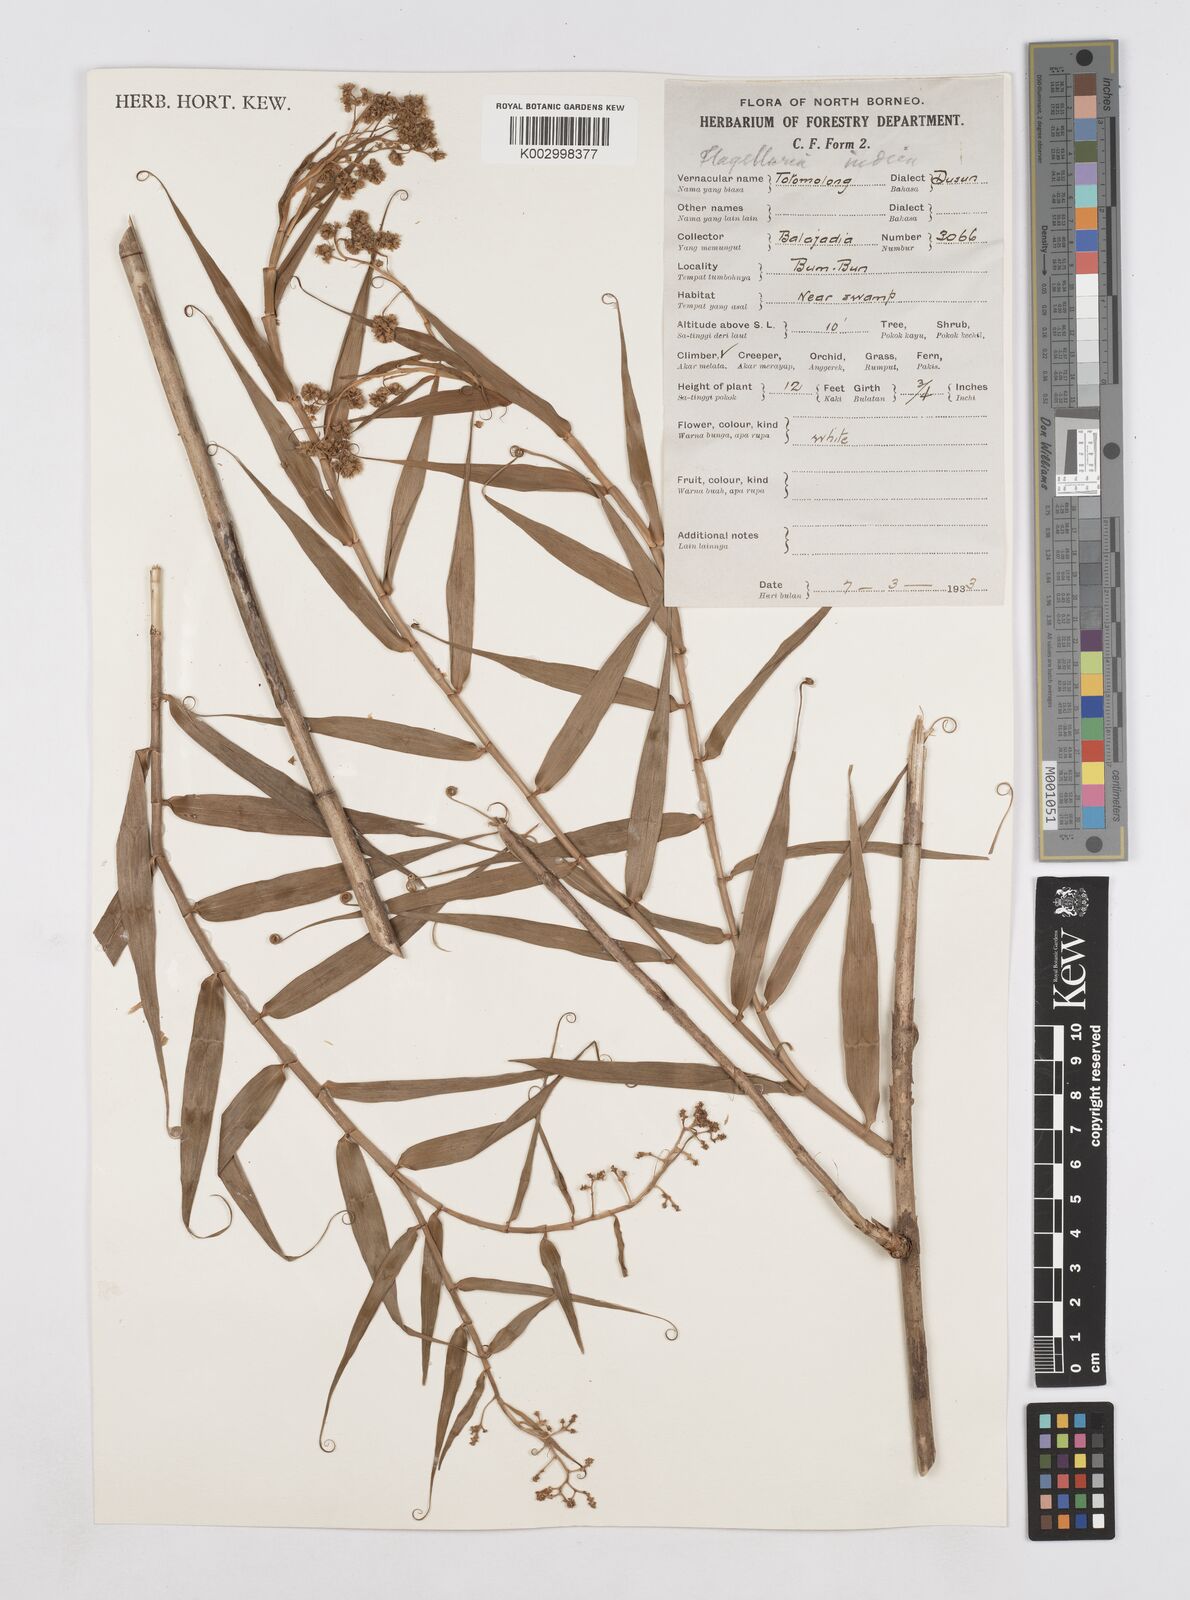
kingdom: Plantae
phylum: Tracheophyta
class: Liliopsida
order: Poales
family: Flagellariaceae
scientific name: Flagellariaceae
